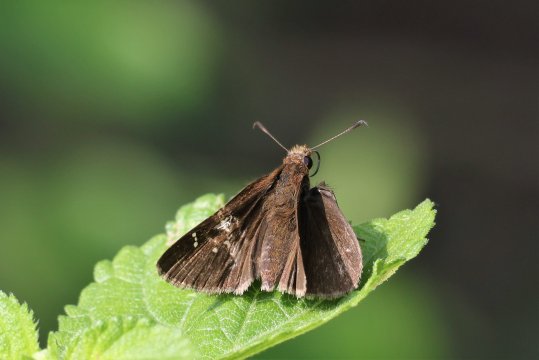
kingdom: Animalia
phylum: Arthropoda
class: Insecta
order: Lepidoptera
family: Hesperiidae
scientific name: Hesperiidae
